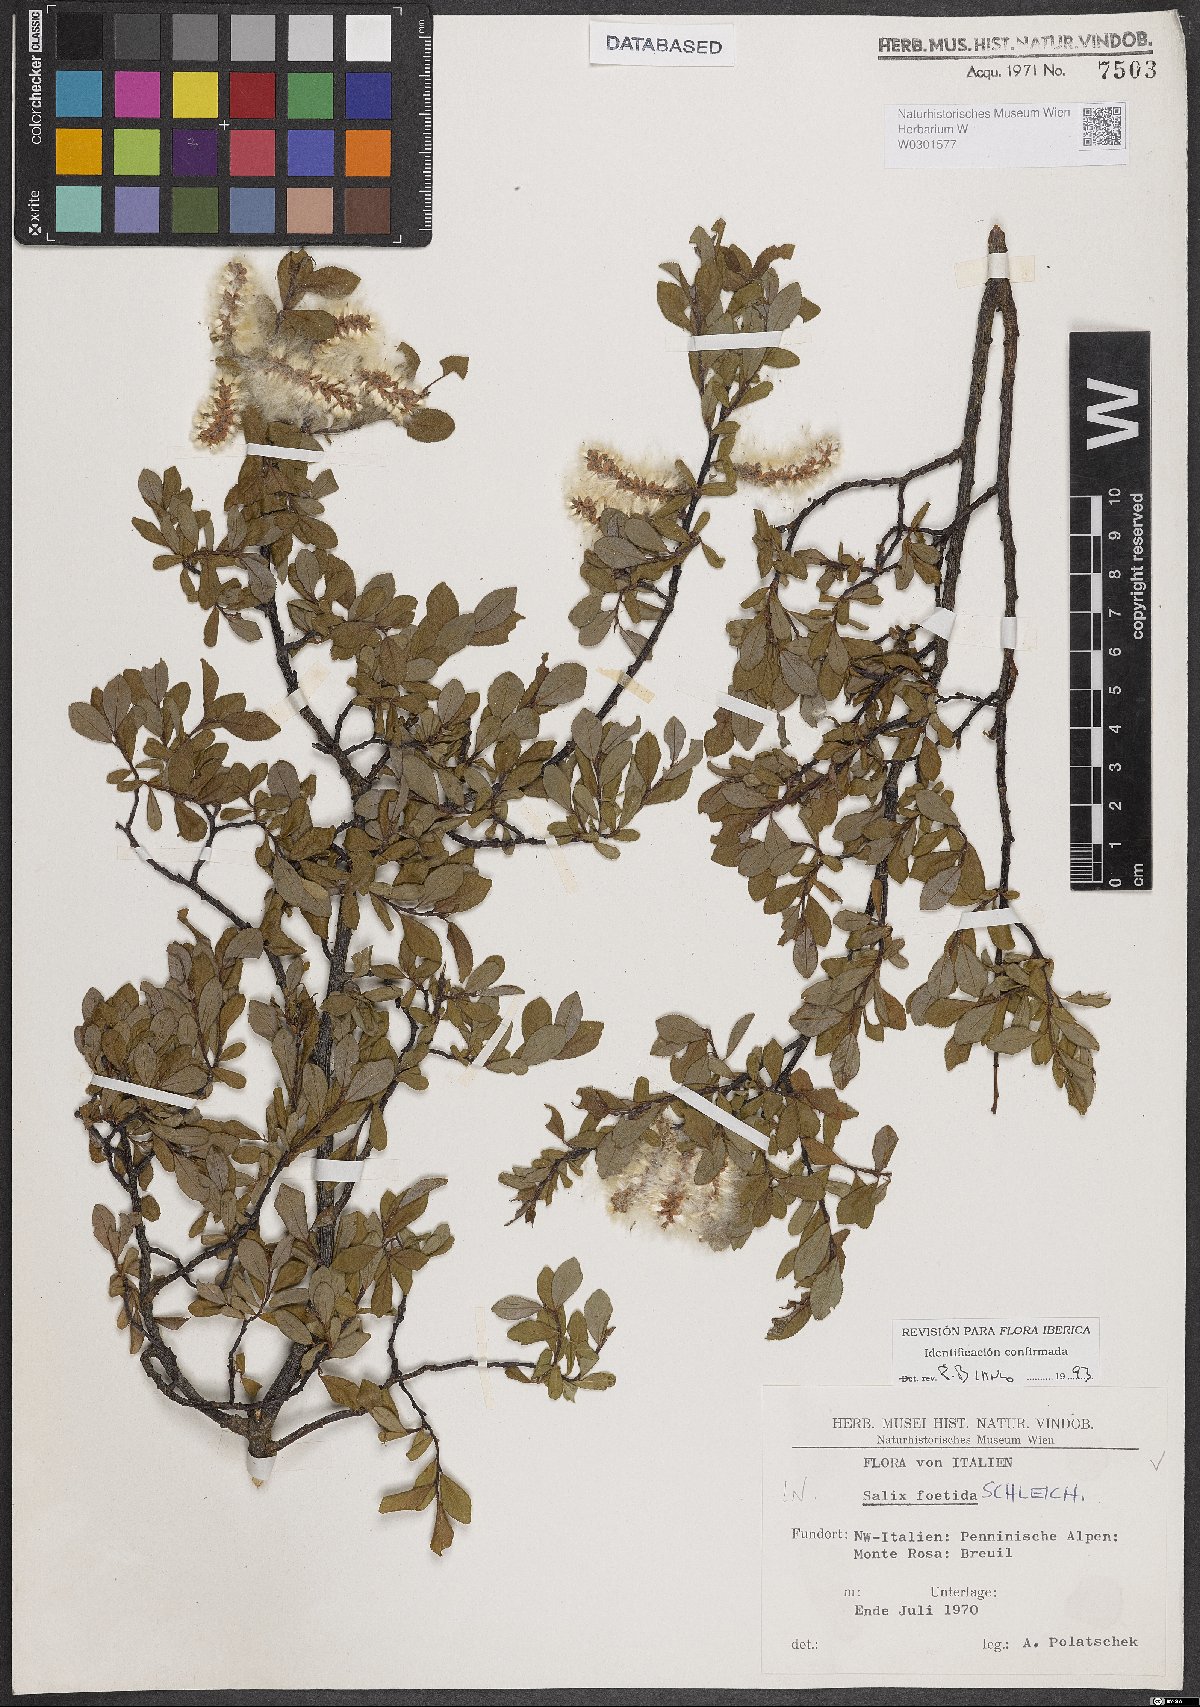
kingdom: Plantae
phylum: Tracheophyta
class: Magnoliopsida
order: Malpighiales
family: Salicaceae
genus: Salix
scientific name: Salix foetida
